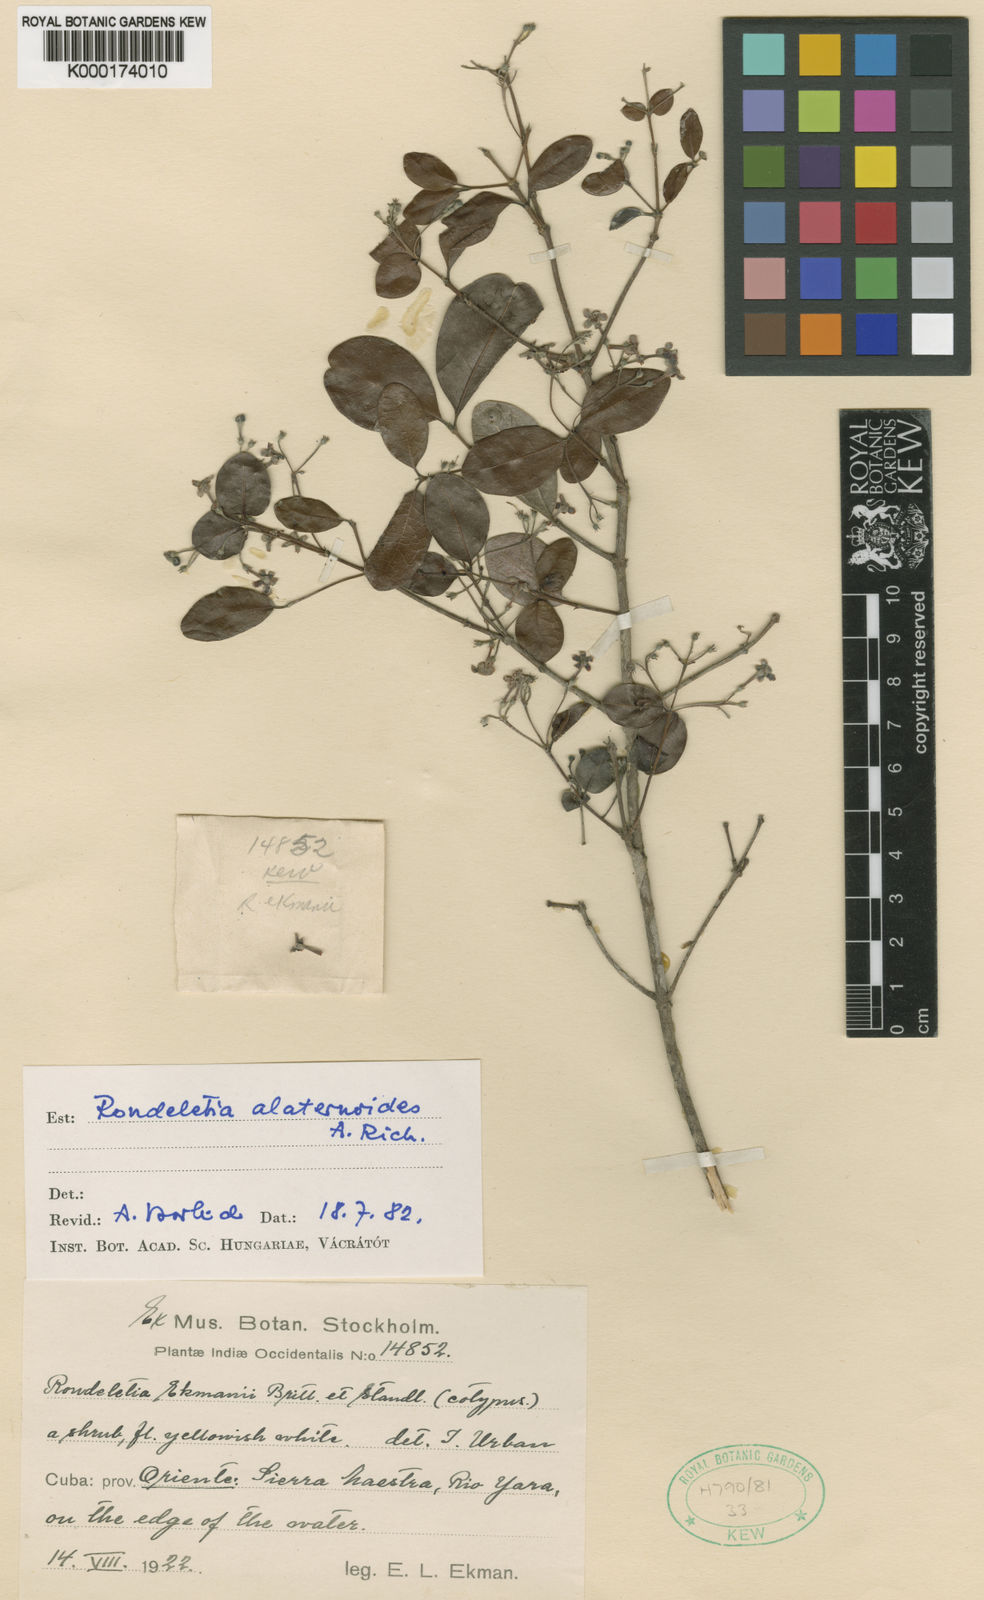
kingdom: Plantae
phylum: Tracheophyta
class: Magnoliopsida
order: Gentianales
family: Rubiaceae
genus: Rondeletia
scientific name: Rondeletia ekmanii
